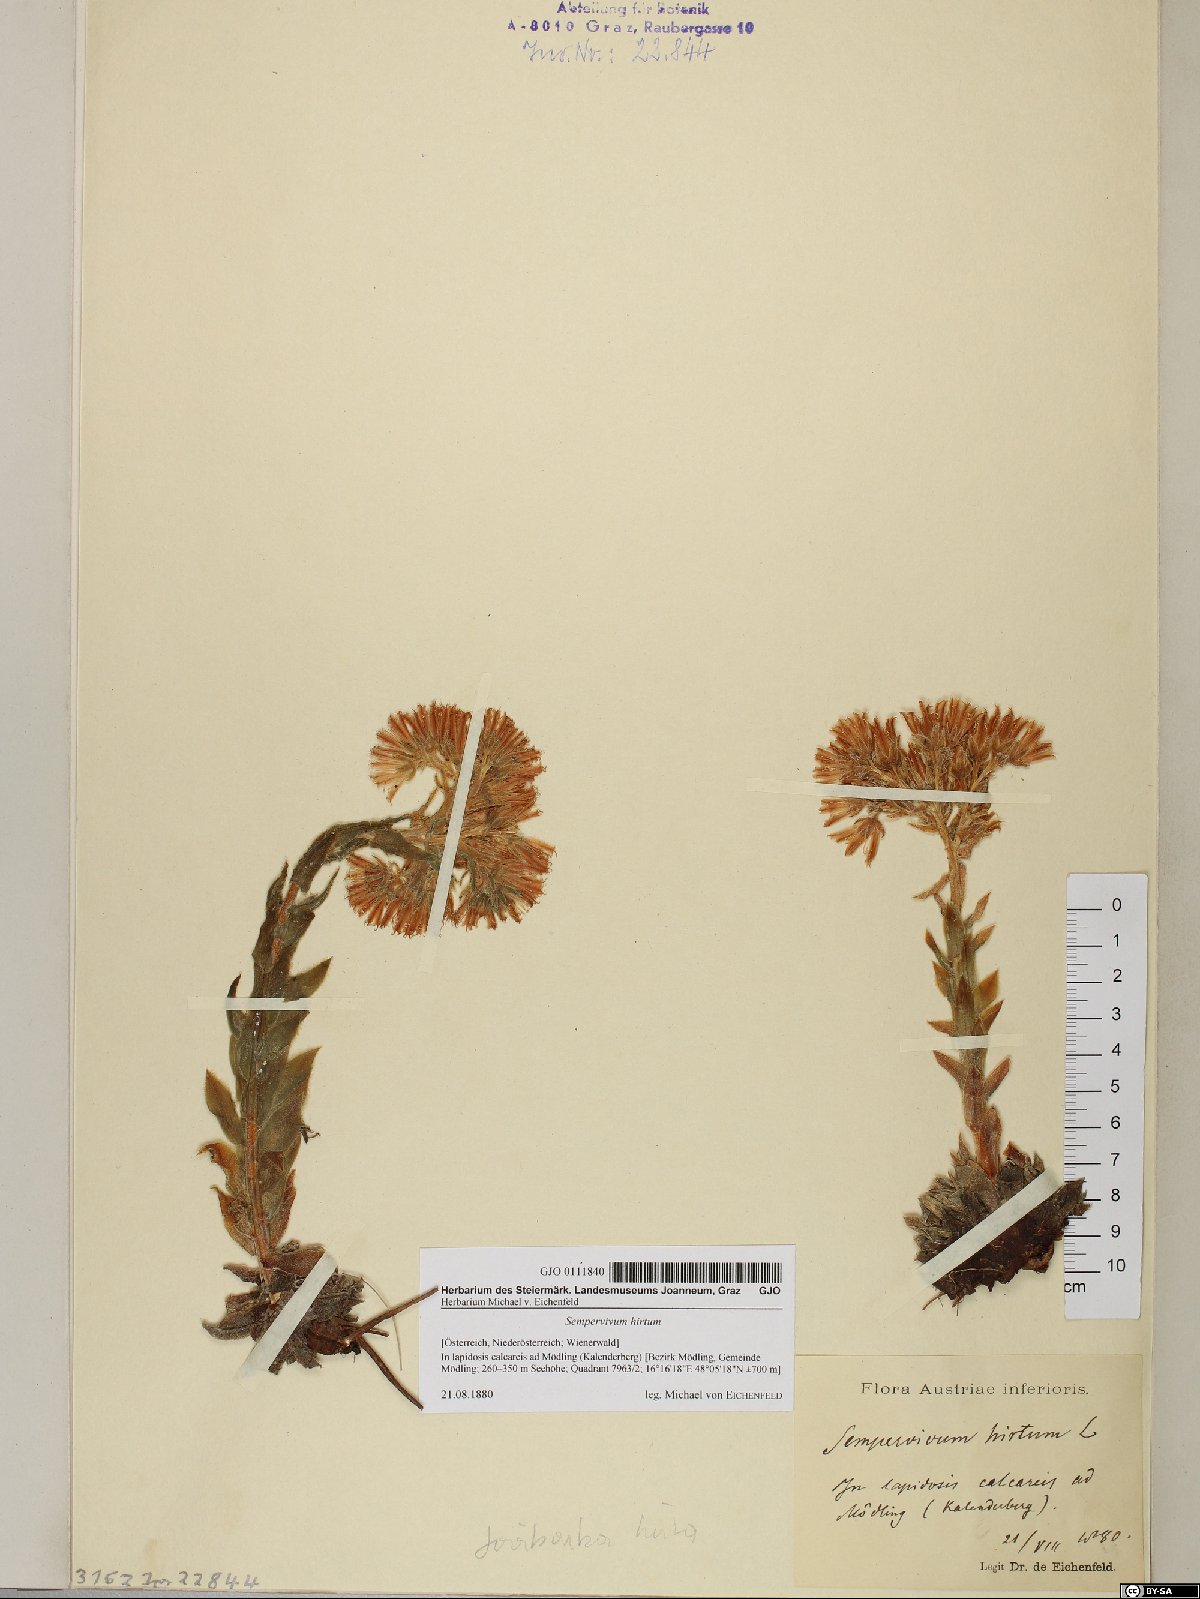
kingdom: Plantae
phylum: Tracheophyta
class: Magnoliopsida
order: Saxifragales
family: Crassulaceae
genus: Sempervivum
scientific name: Sempervivum globiferum
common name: Rolling hen-and-chicks
